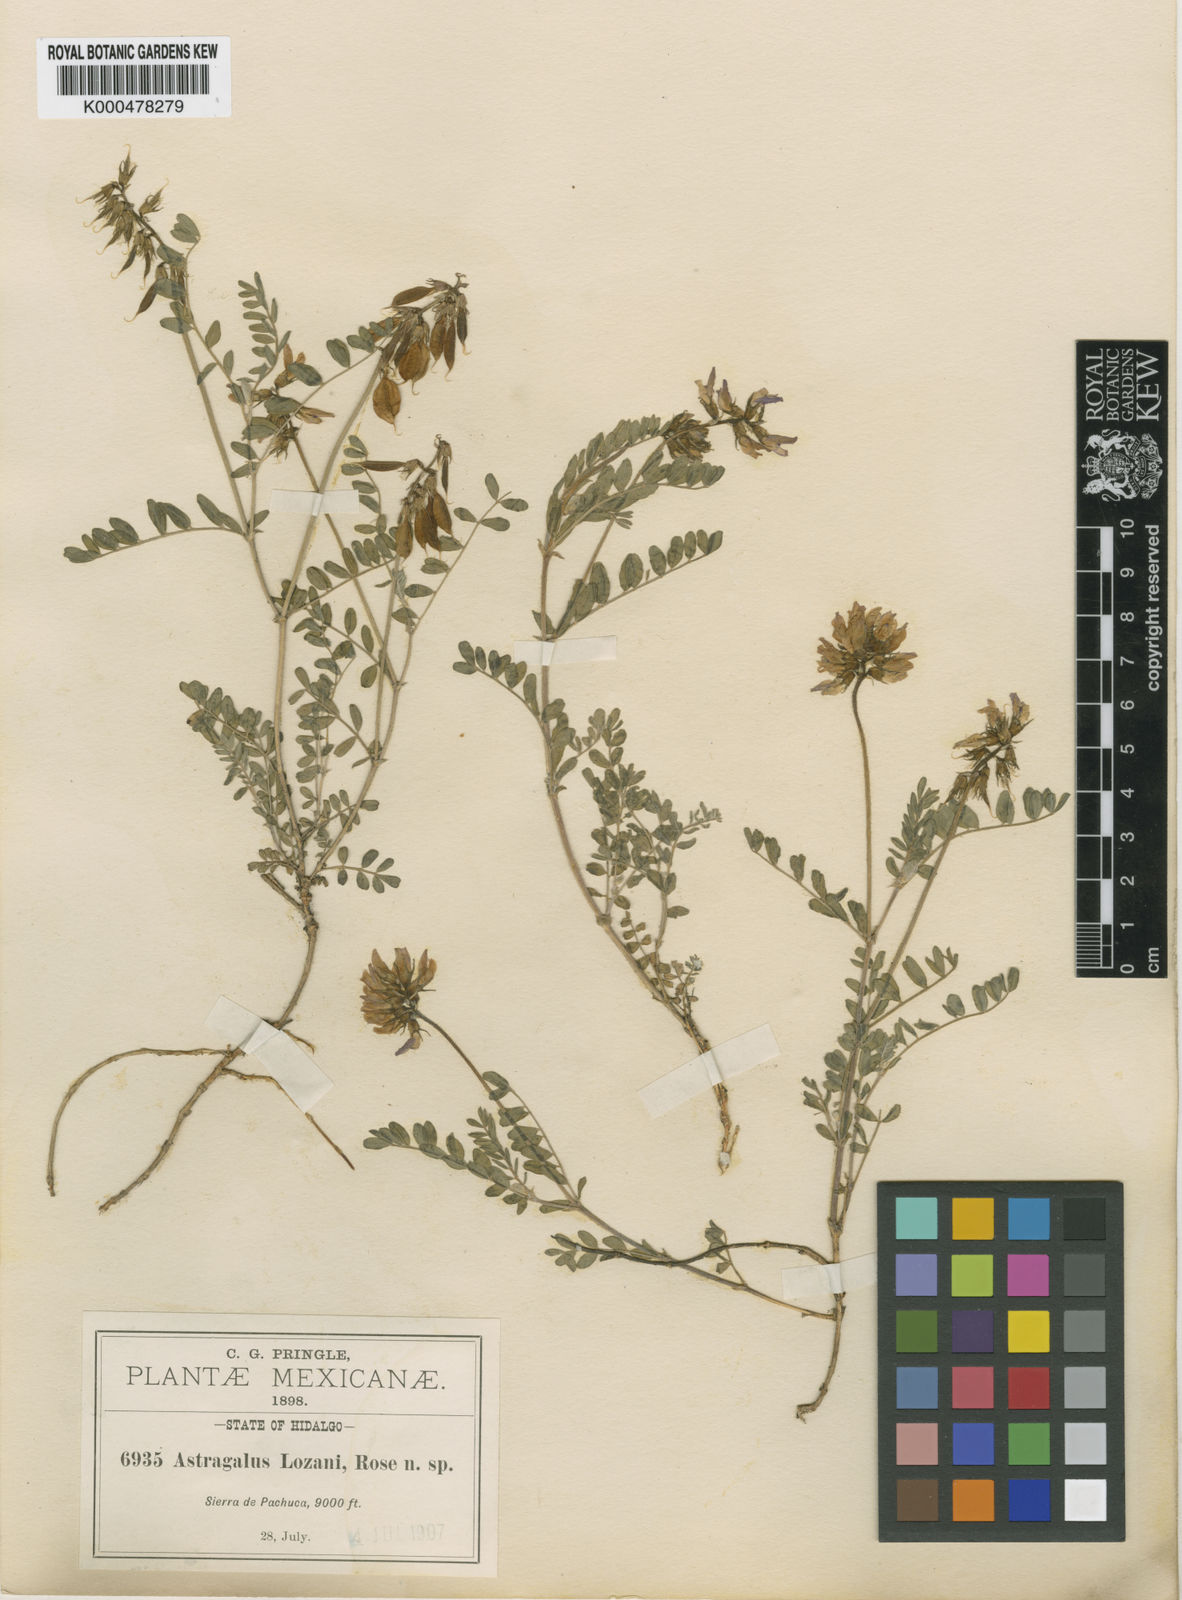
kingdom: Plantae
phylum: Tracheophyta
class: Magnoliopsida
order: Fabales
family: Fabaceae
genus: Astragalus
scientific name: Astragalus guatemalensis
